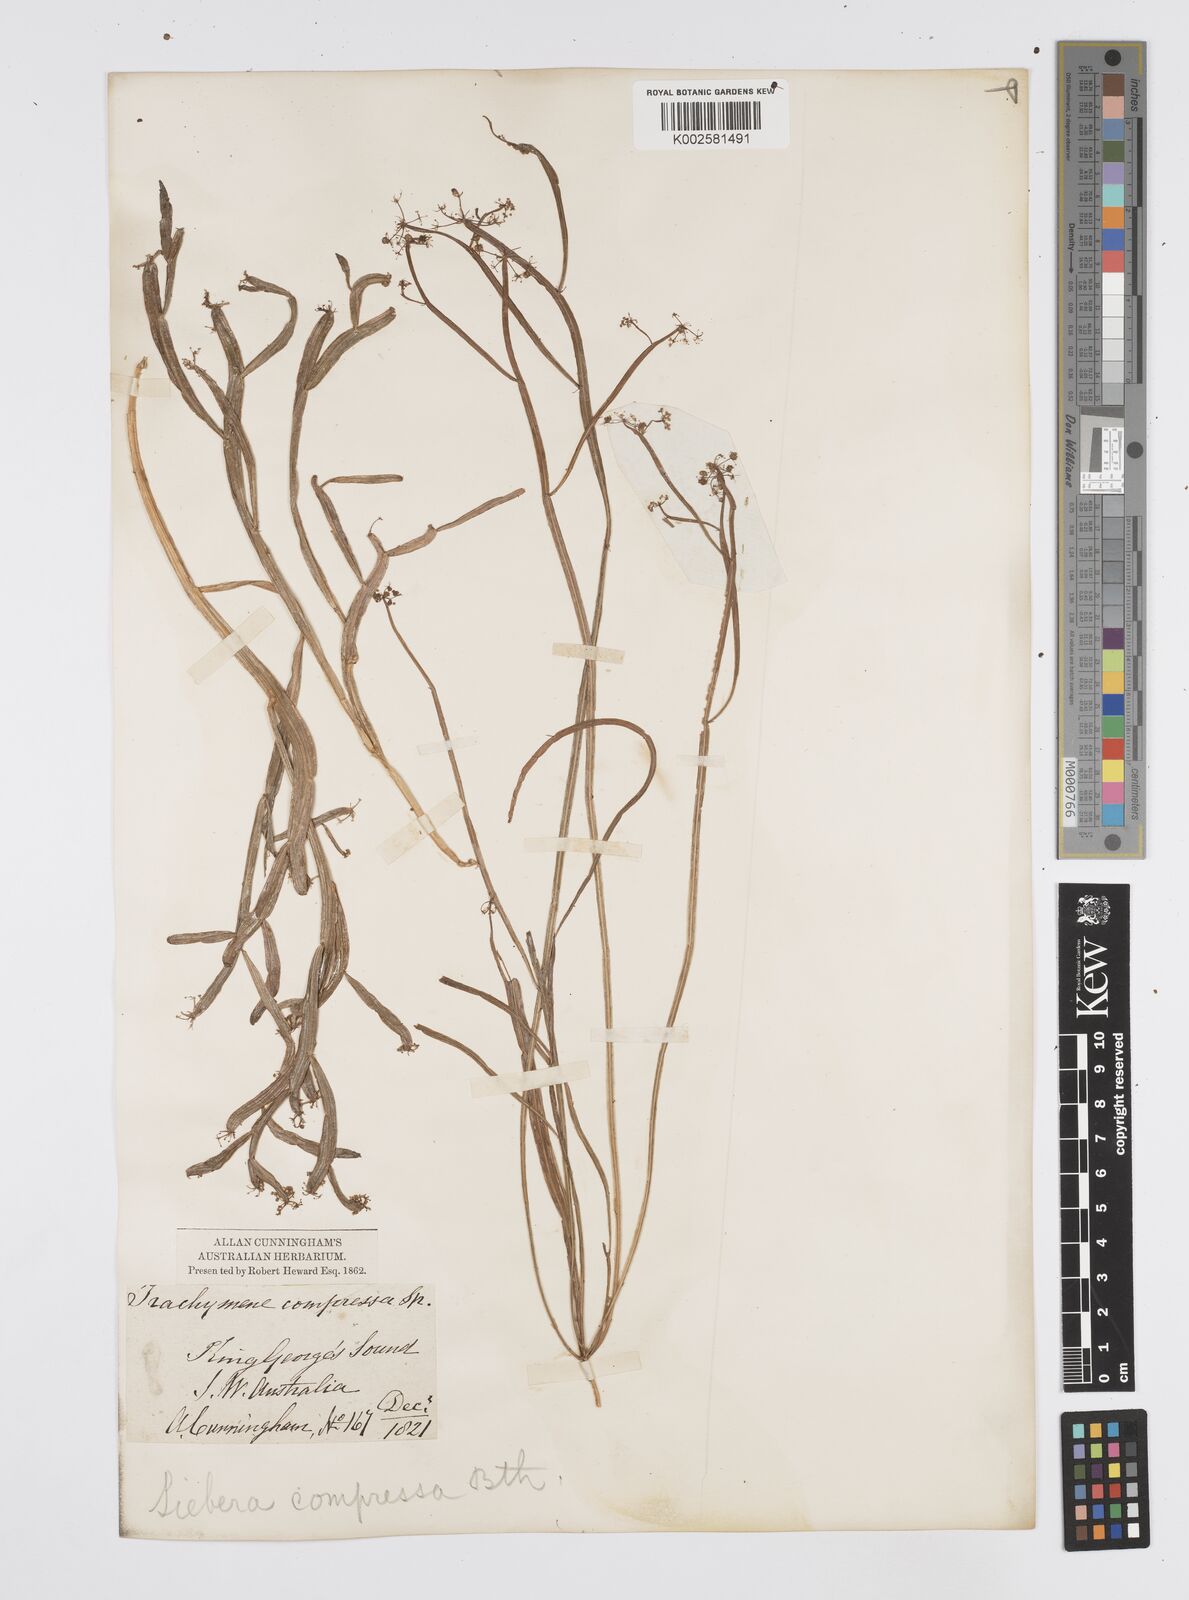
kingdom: Plantae
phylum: Tracheophyta
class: Magnoliopsida
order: Apiales
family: Apiaceae
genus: Centella
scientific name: Centella
